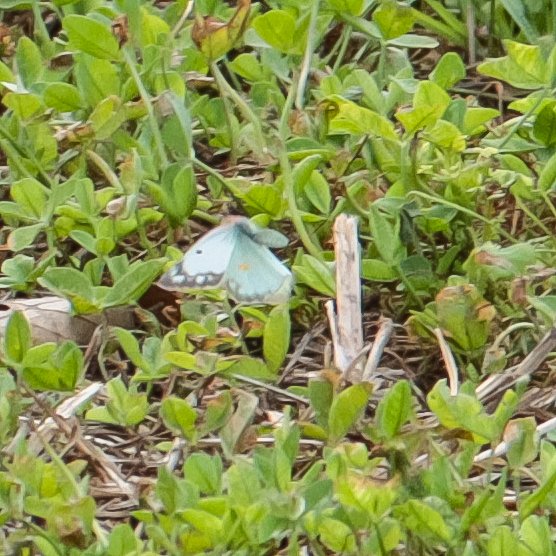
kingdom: Animalia
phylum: Arthropoda
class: Insecta
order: Lepidoptera
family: Pieridae
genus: Colias
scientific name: Colias philodice
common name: Clouded Sulphur
